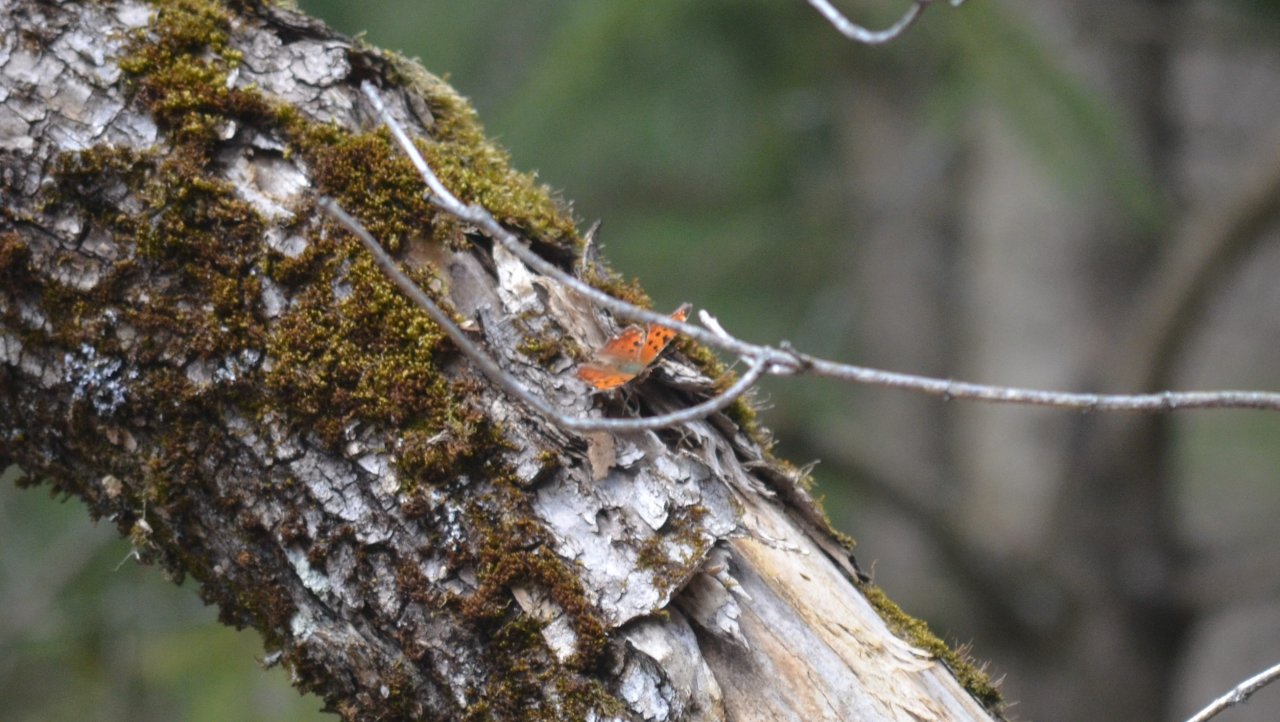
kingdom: Animalia
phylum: Arthropoda
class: Insecta
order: Lepidoptera
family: Nymphalidae
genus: Polygonia
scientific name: Polygonia comma
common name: Eastern Comma
